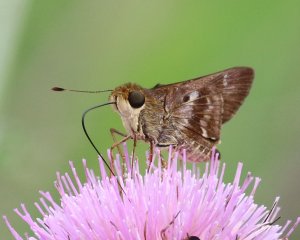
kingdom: Animalia
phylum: Arthropoda
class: Insecta
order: Lepidoptera
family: Hesperiidae
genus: Nyctelius
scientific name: Nyctelius nyctelius
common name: Violet-banded Skipper
